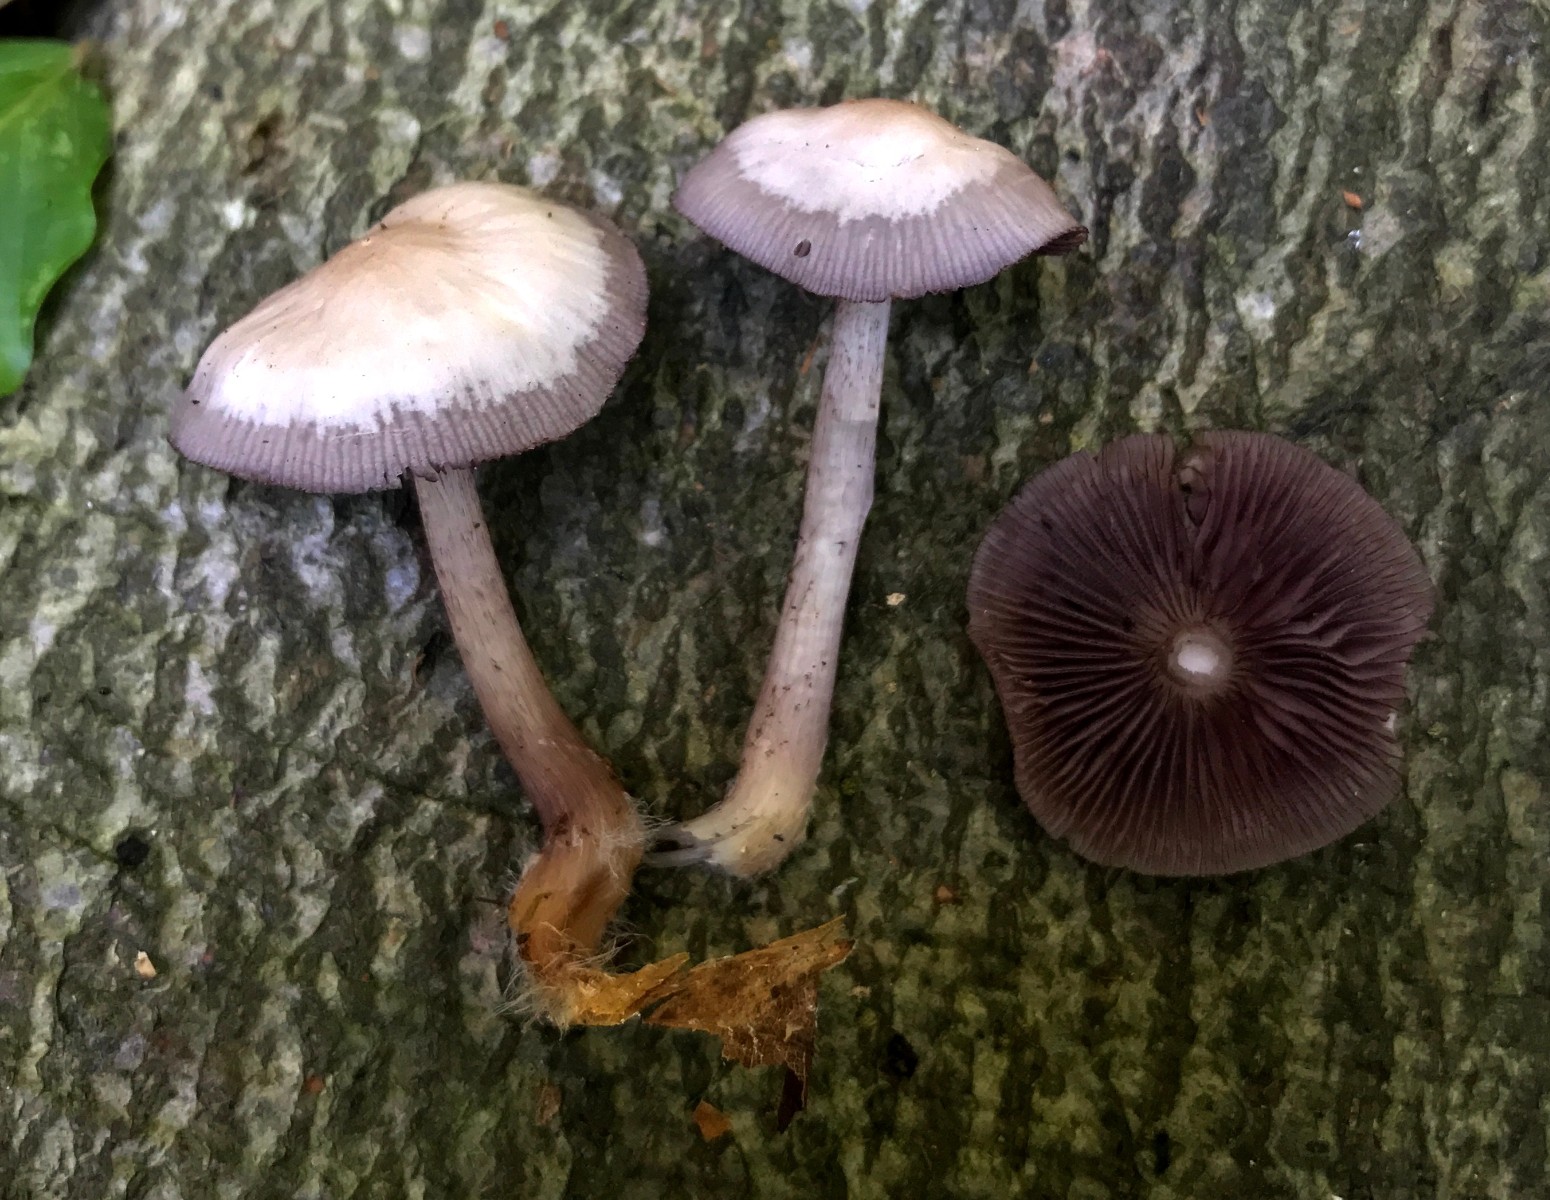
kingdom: Fungi
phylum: Basidiomycota
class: Agaricomycetes
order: Agaricales
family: Mycenaceae
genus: Mycena
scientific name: Mycena pelianthina
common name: mørkbladet huesvamp
